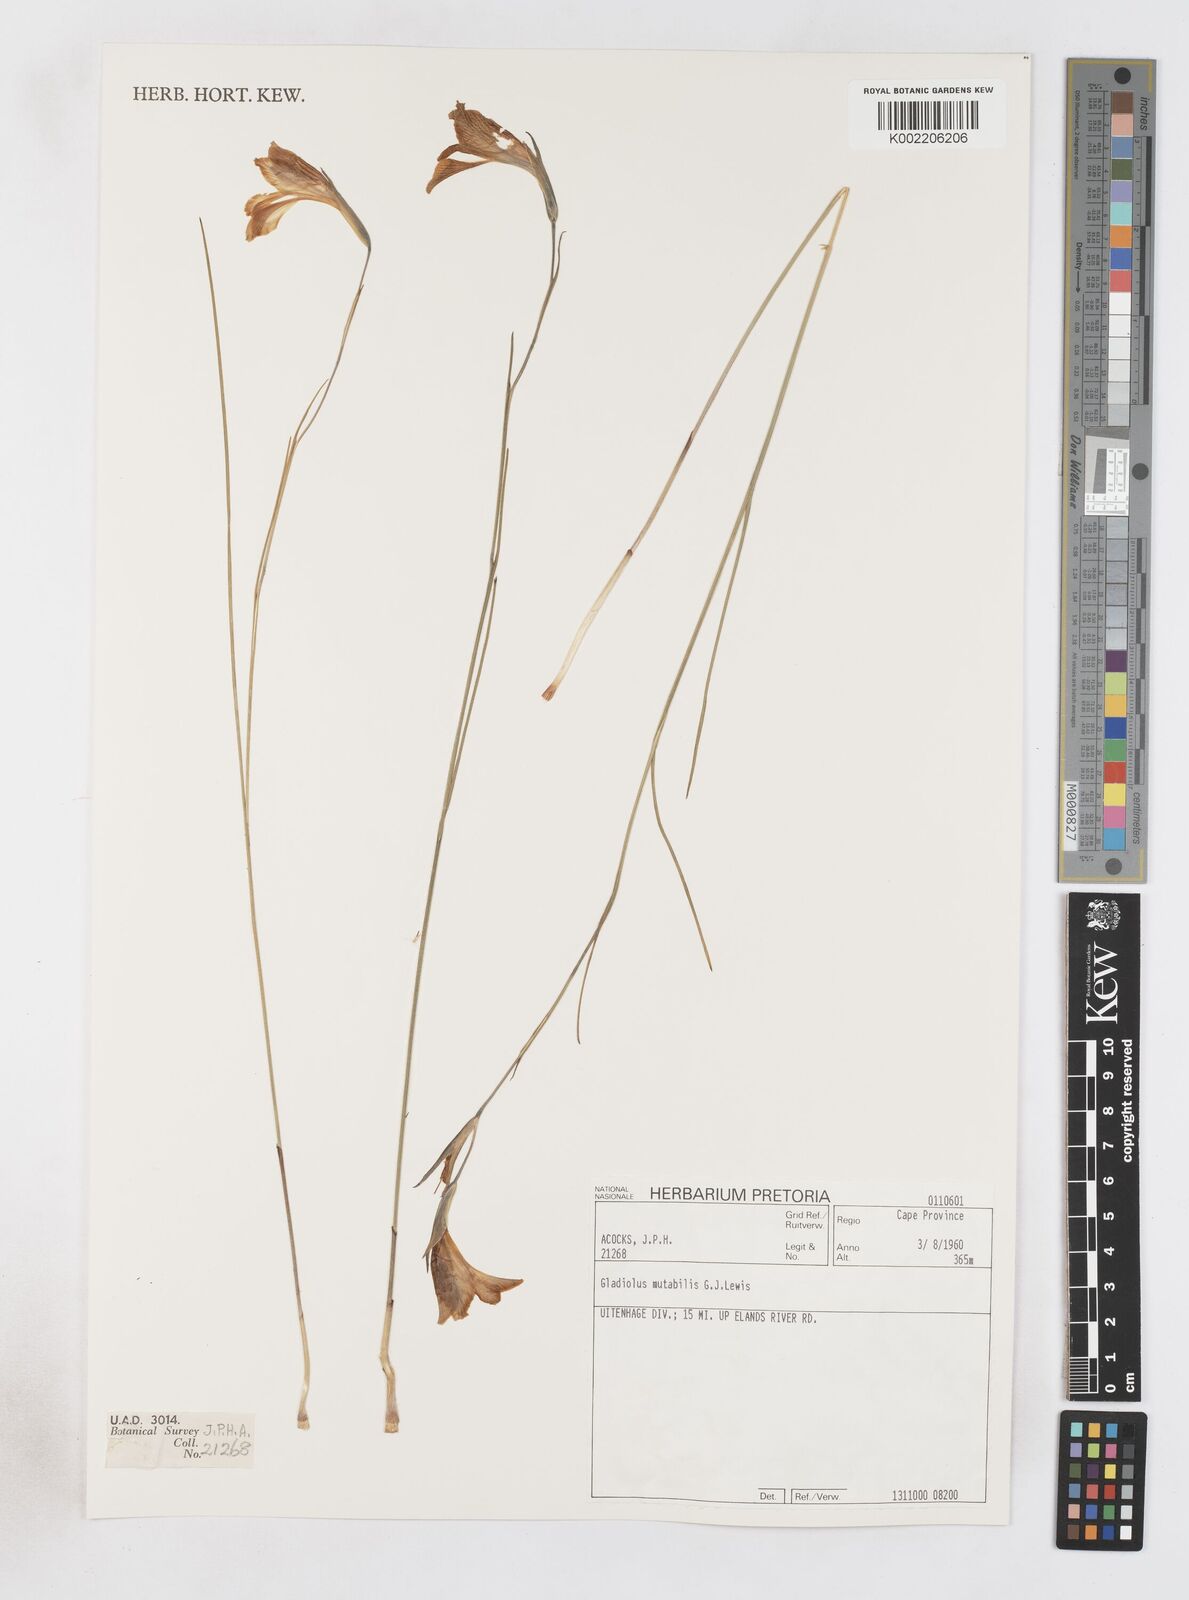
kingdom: Plantae
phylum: Tracheophyta
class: Liliopsida
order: Asparagales
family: Iridaceae
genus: Gladiolus
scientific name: Gladiolus mutabilis
